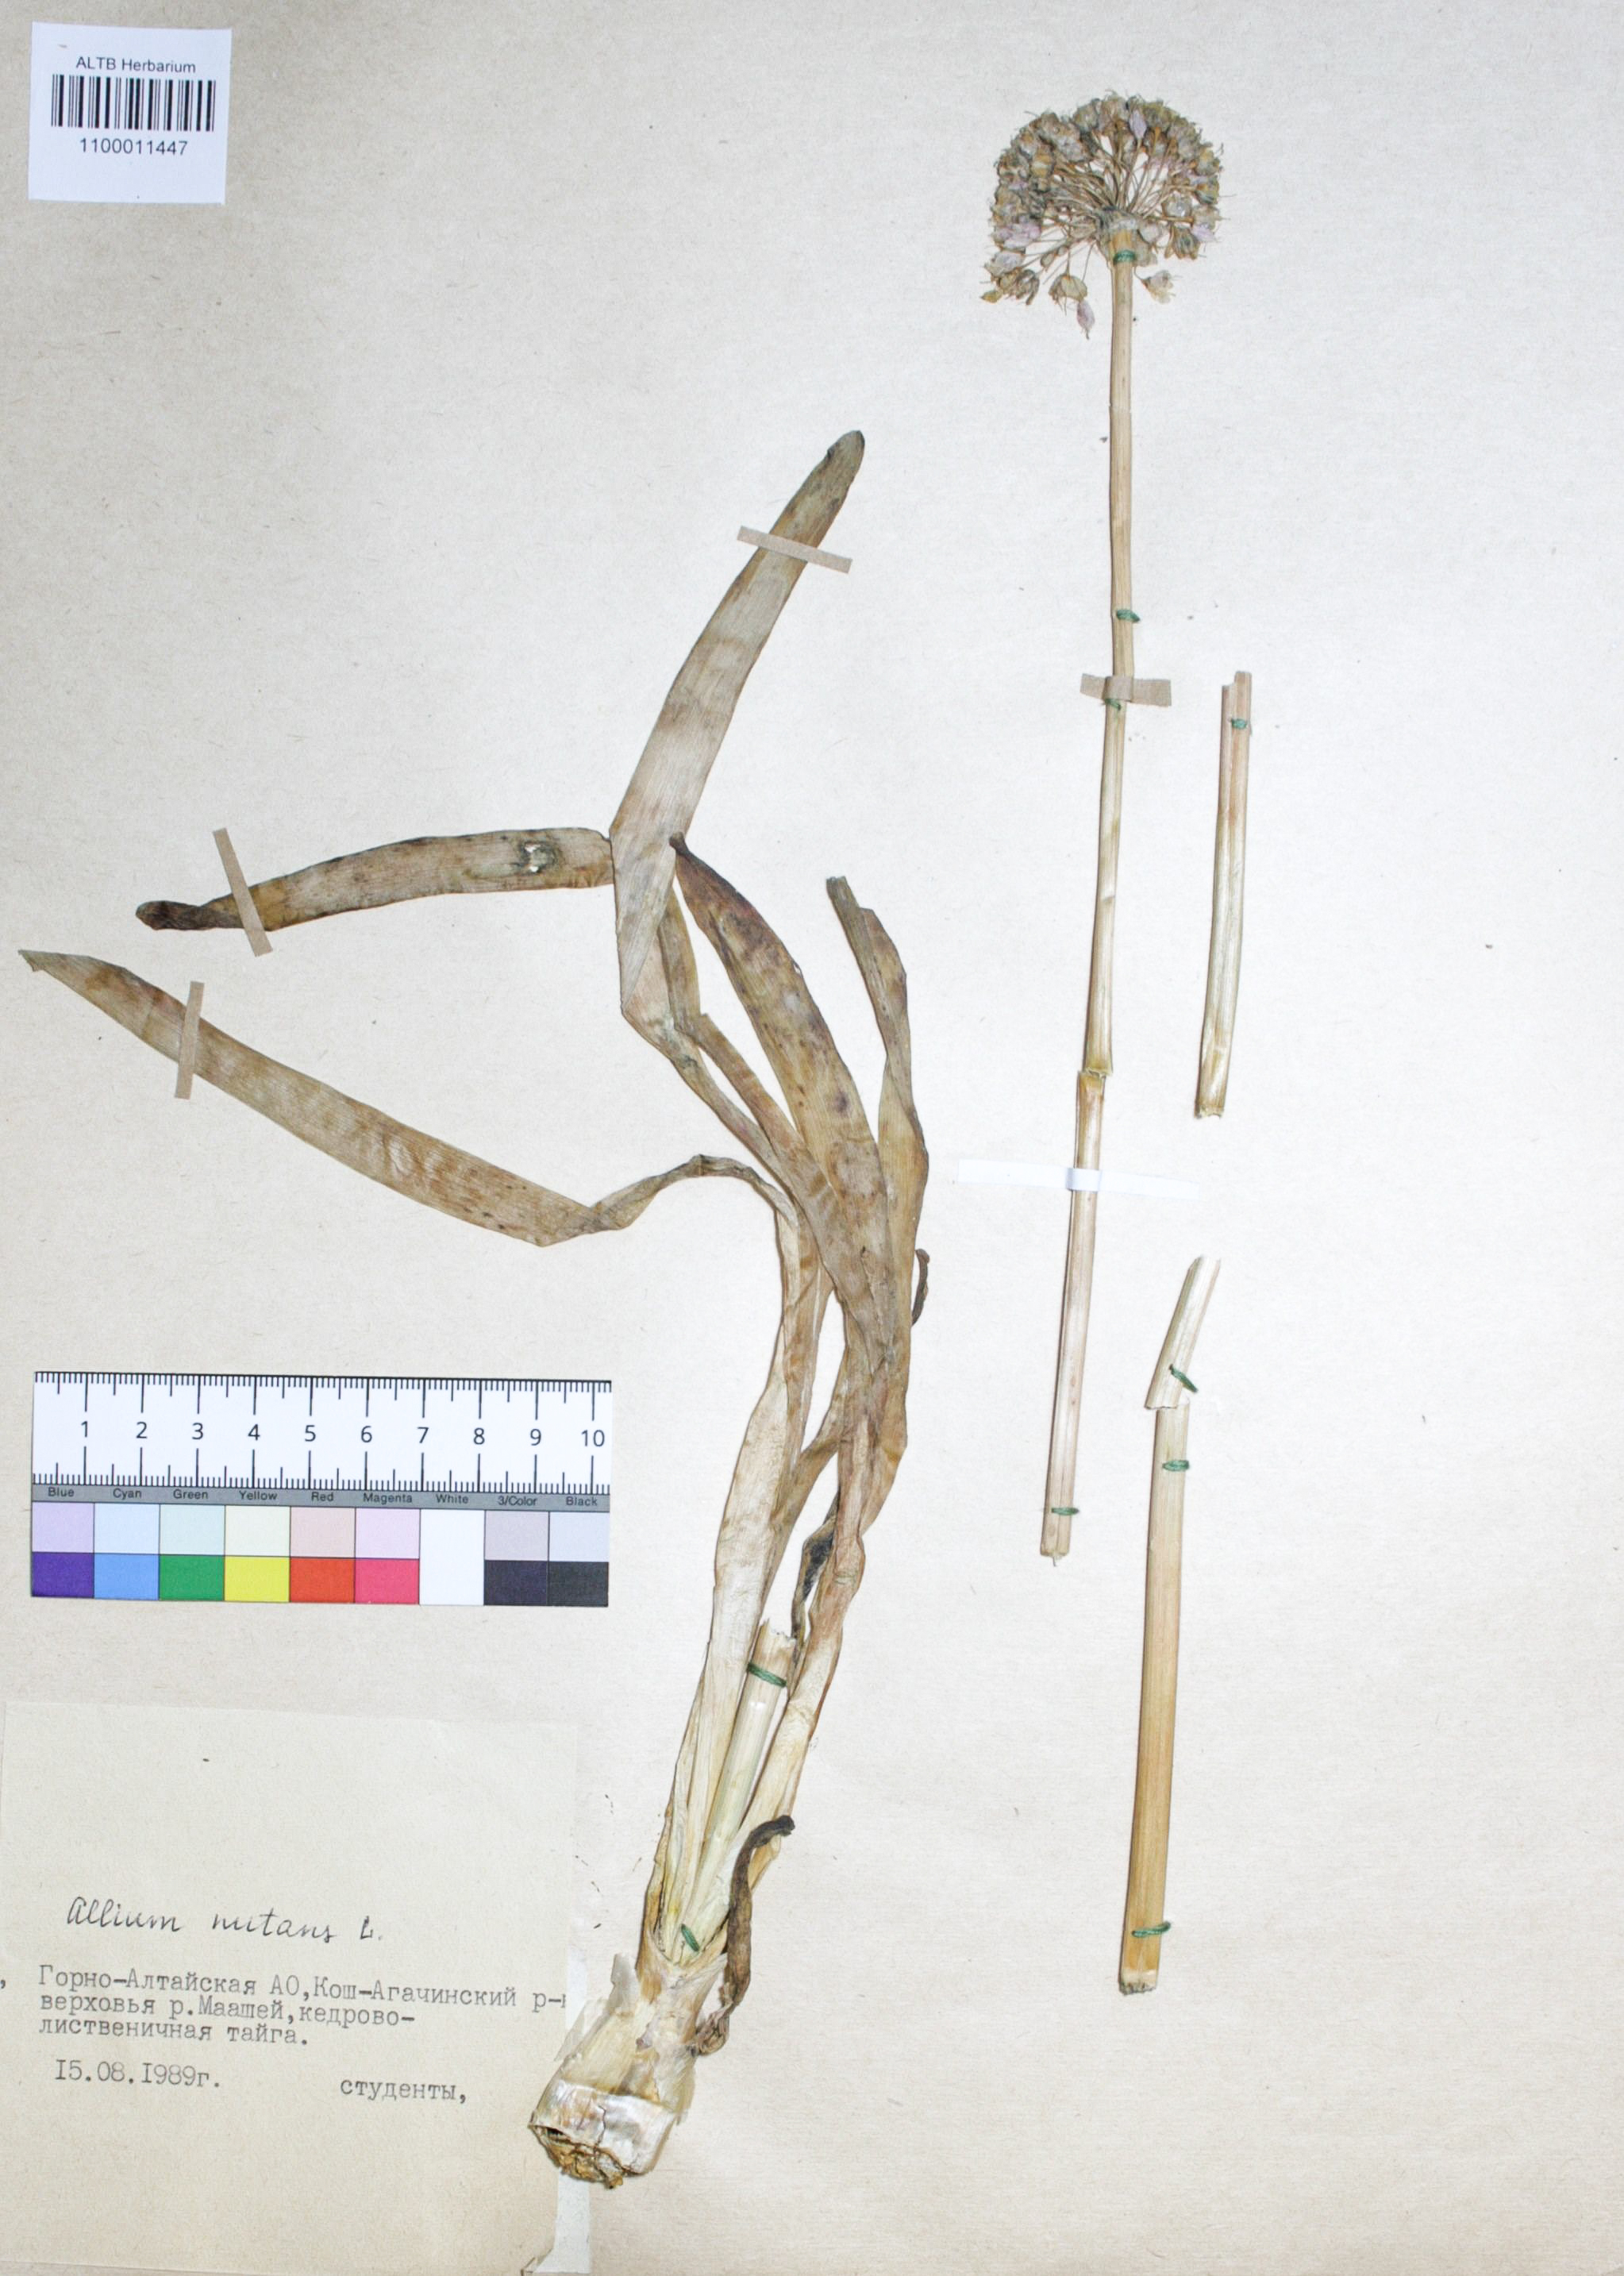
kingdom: Plantae
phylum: Tracheophyta
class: Liliopsida
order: Asparagales
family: Amaryllidaceae
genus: Allium
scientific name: Allium nutans
